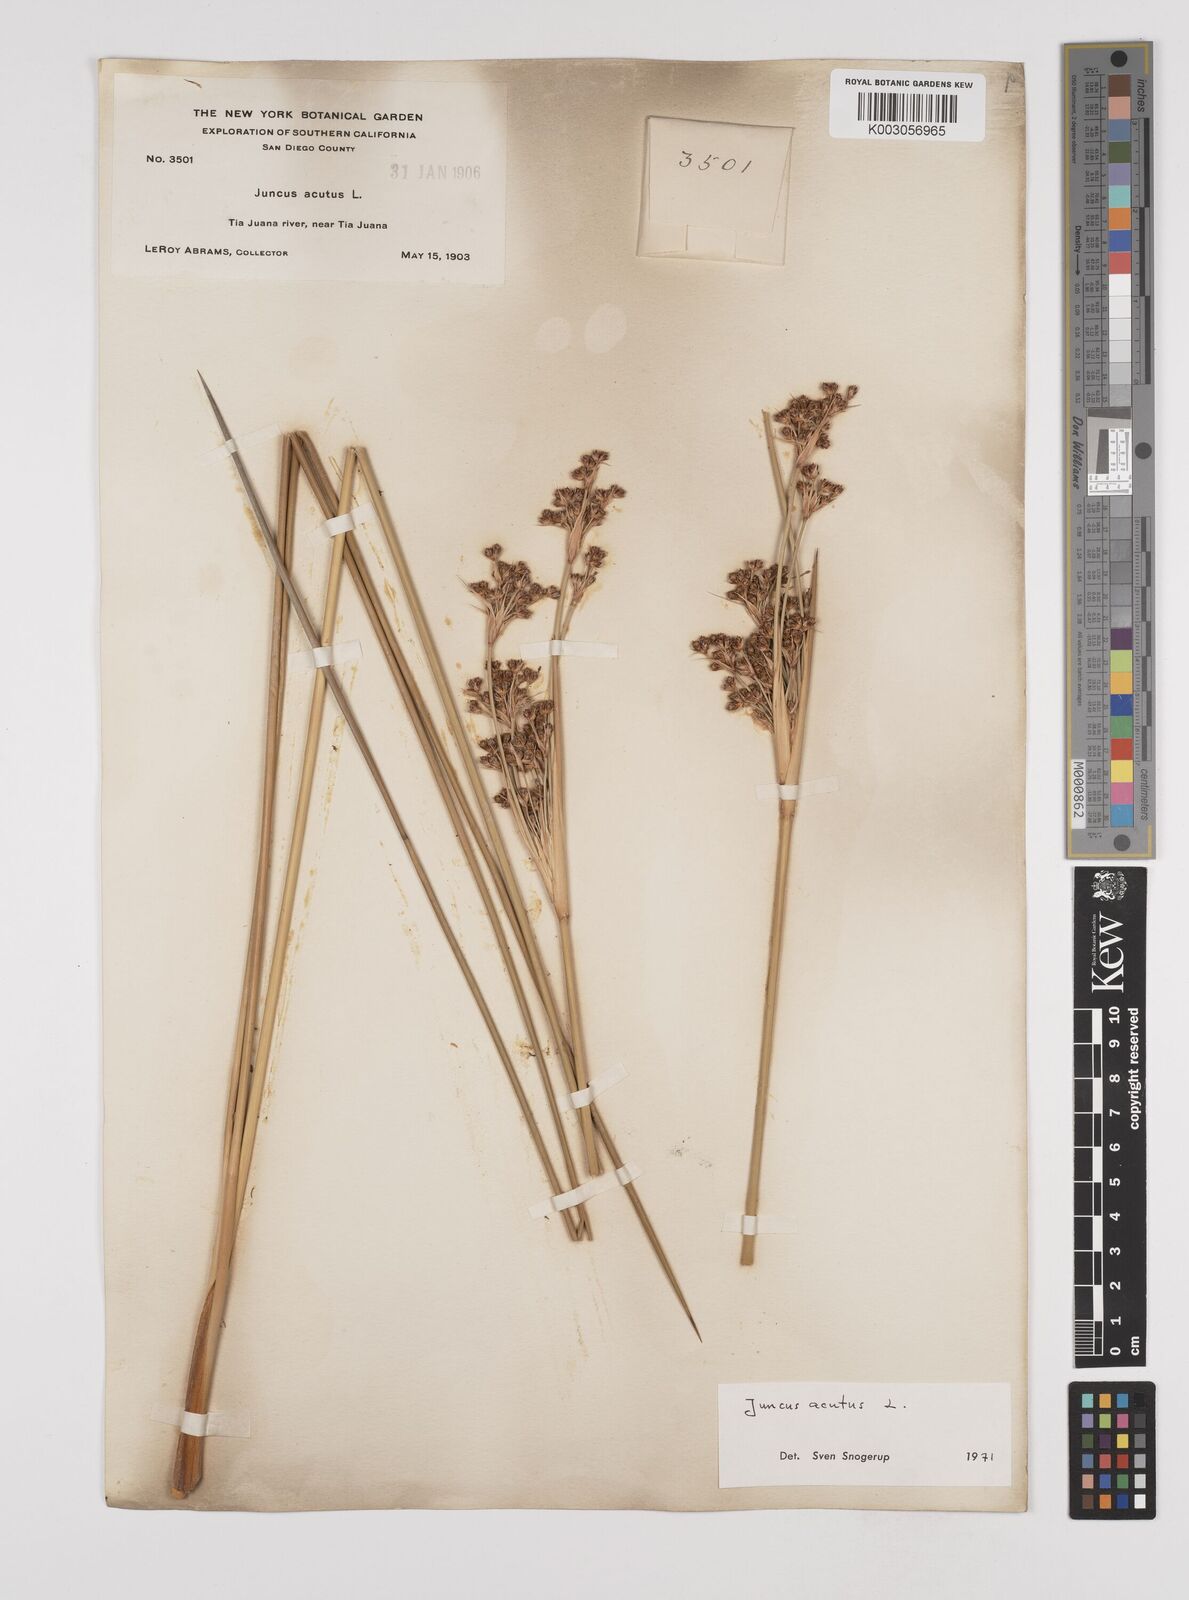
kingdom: Plantae
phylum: Tracheophyta
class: Liliopsida
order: Poales
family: Juncaceae
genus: Juncus
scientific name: Juncus acutus
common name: Sharp rush
